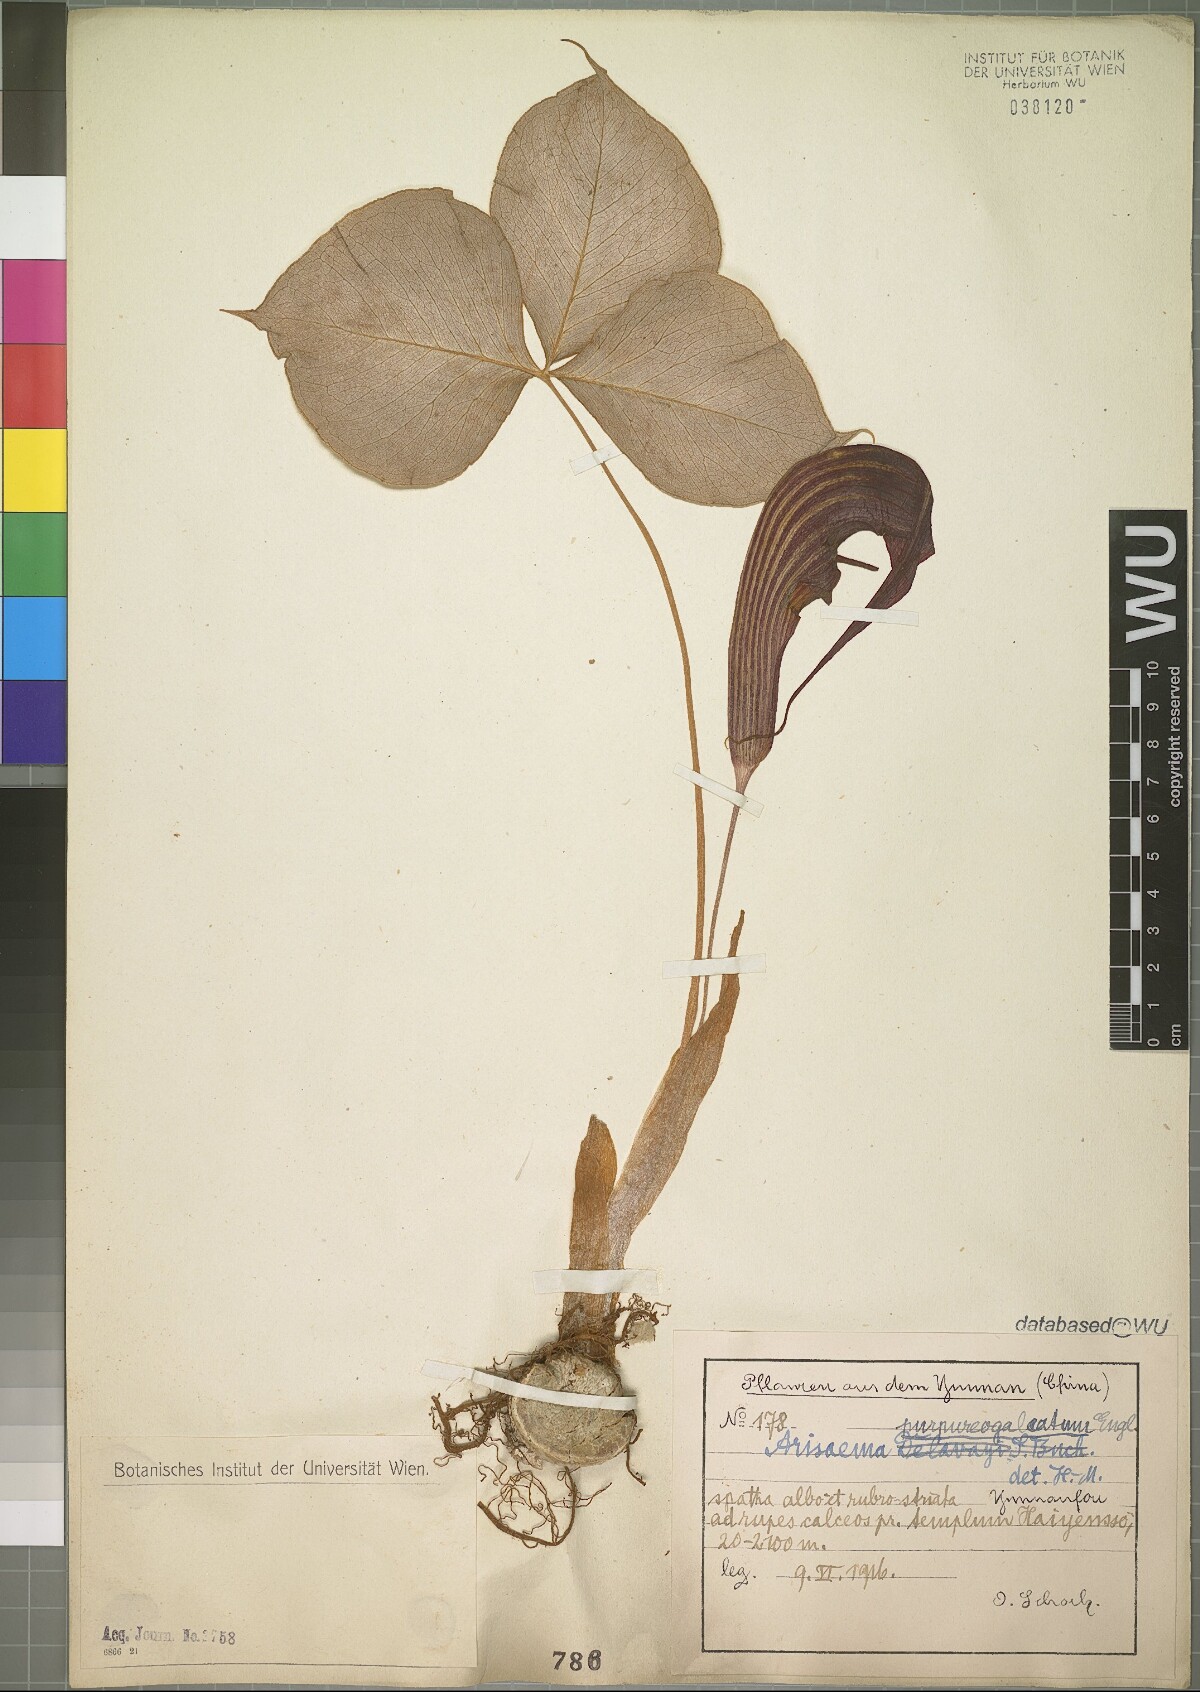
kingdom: Plantae
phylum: Tracheophyta
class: Liliopsida
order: Alismatales
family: Araceae
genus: Arisaema
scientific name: Arisaema purpureogaleatum
